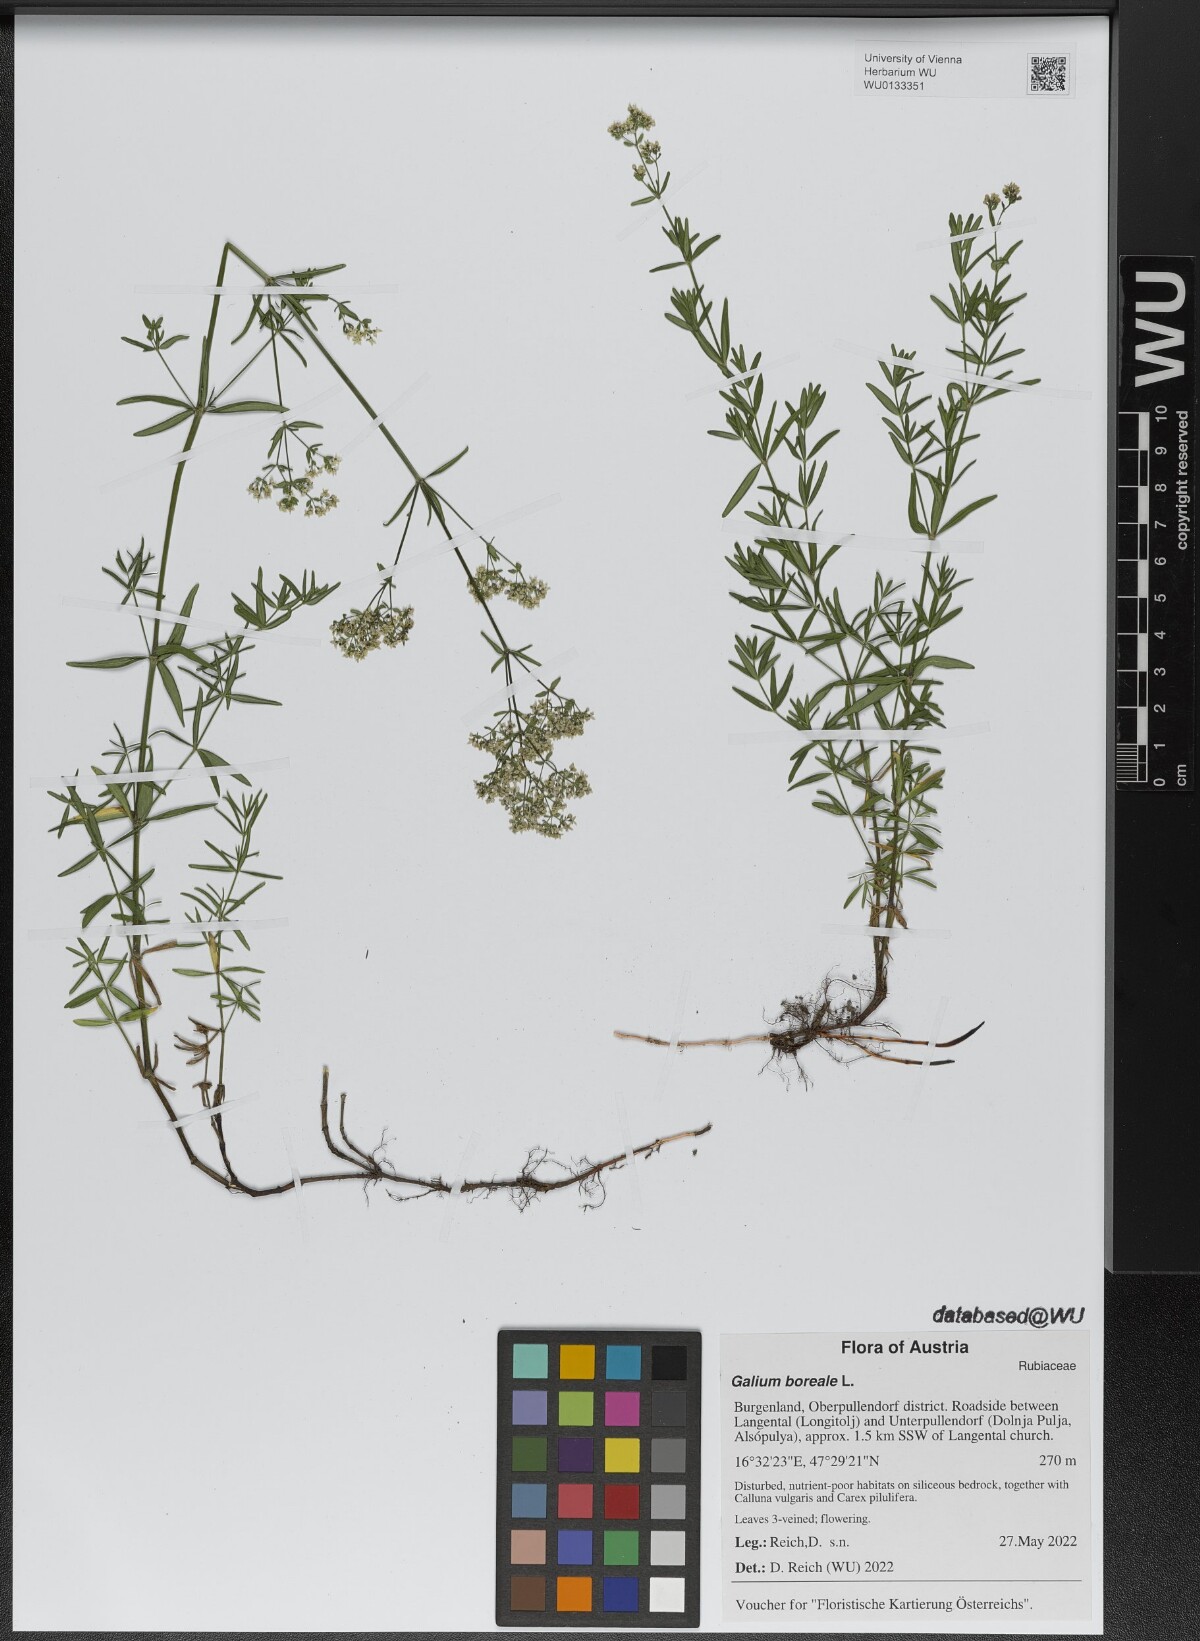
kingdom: Plantae
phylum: Tracheophyta
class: Magnoliopsida
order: Gentianales
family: Rubiaceae
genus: Galium
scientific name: Galium boreale
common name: Northern bedstraw
